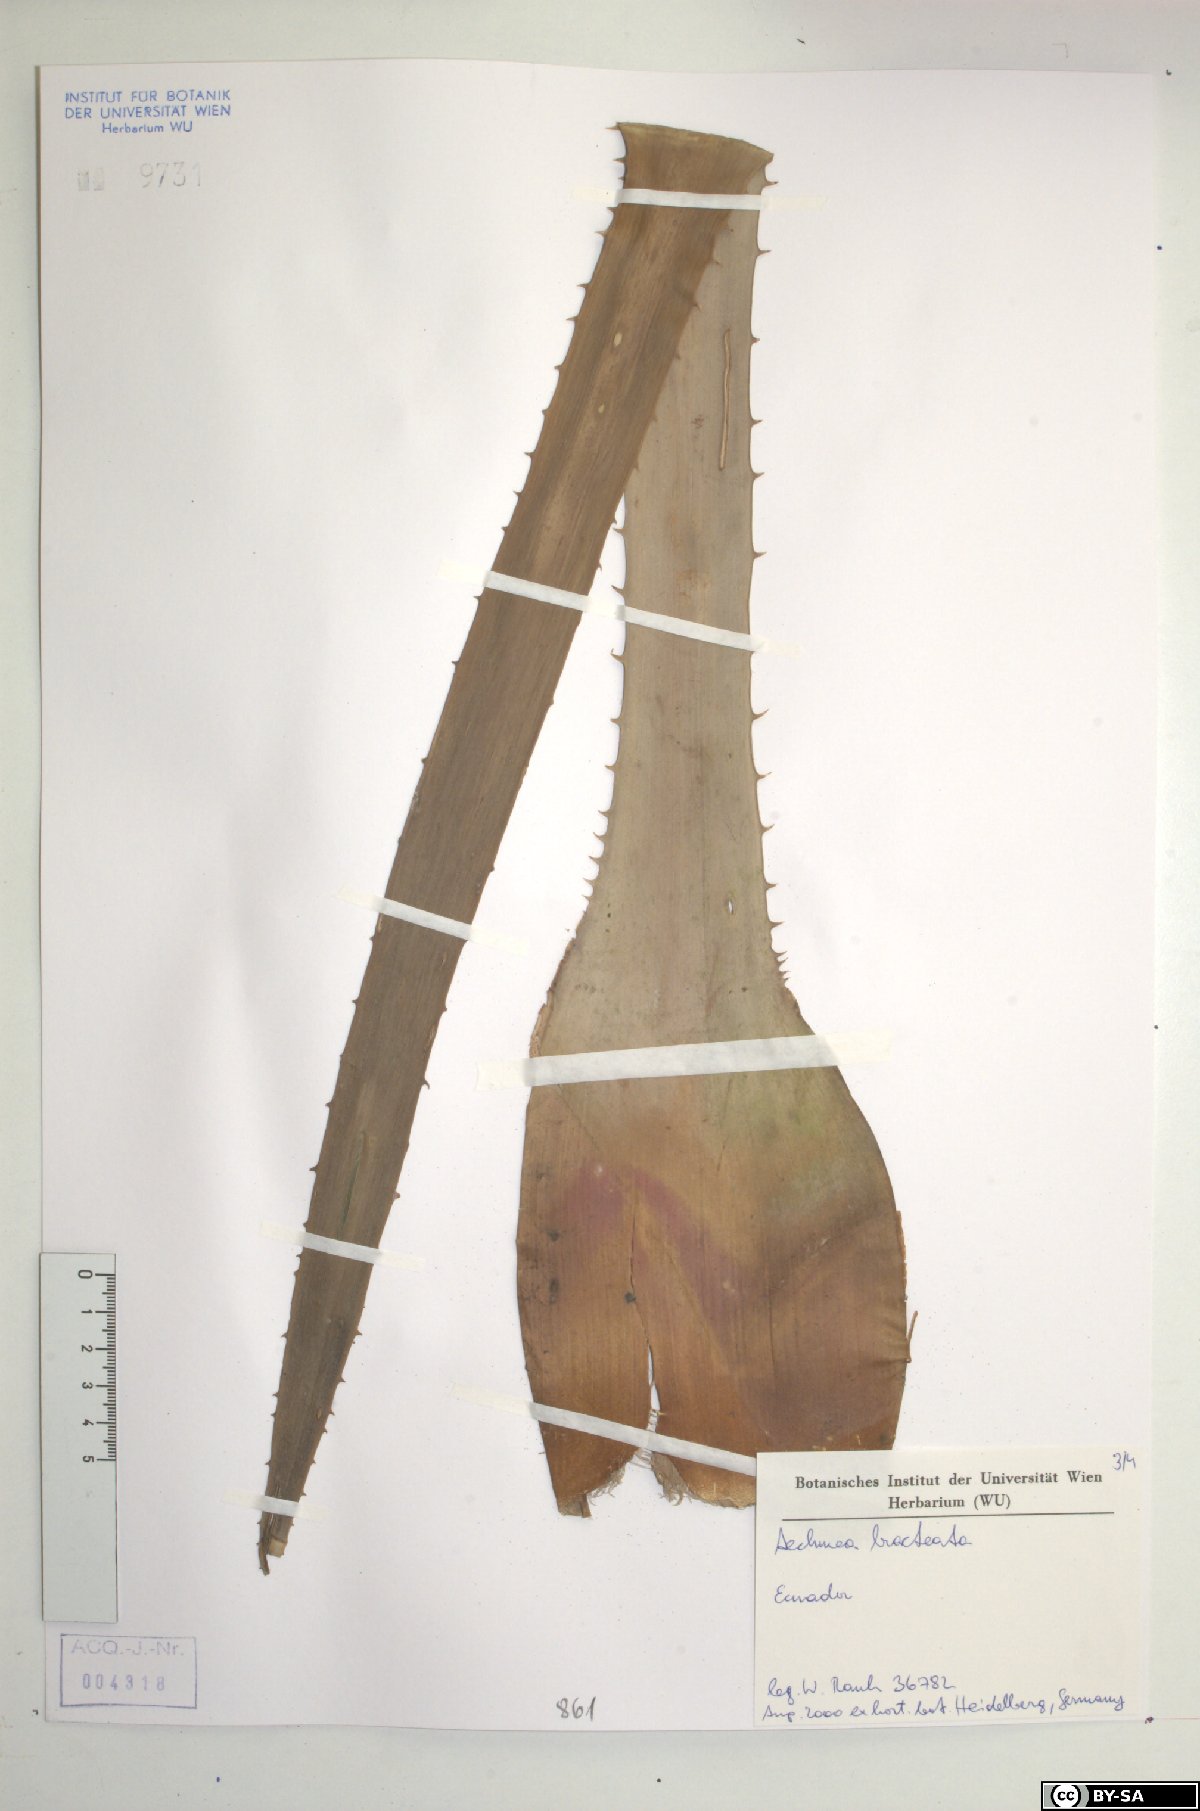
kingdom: Plantae
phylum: Tracheophyta
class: Liliopsida
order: Poales
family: Bromeliaceae
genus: Aechmea
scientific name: Aechmea bracteata
